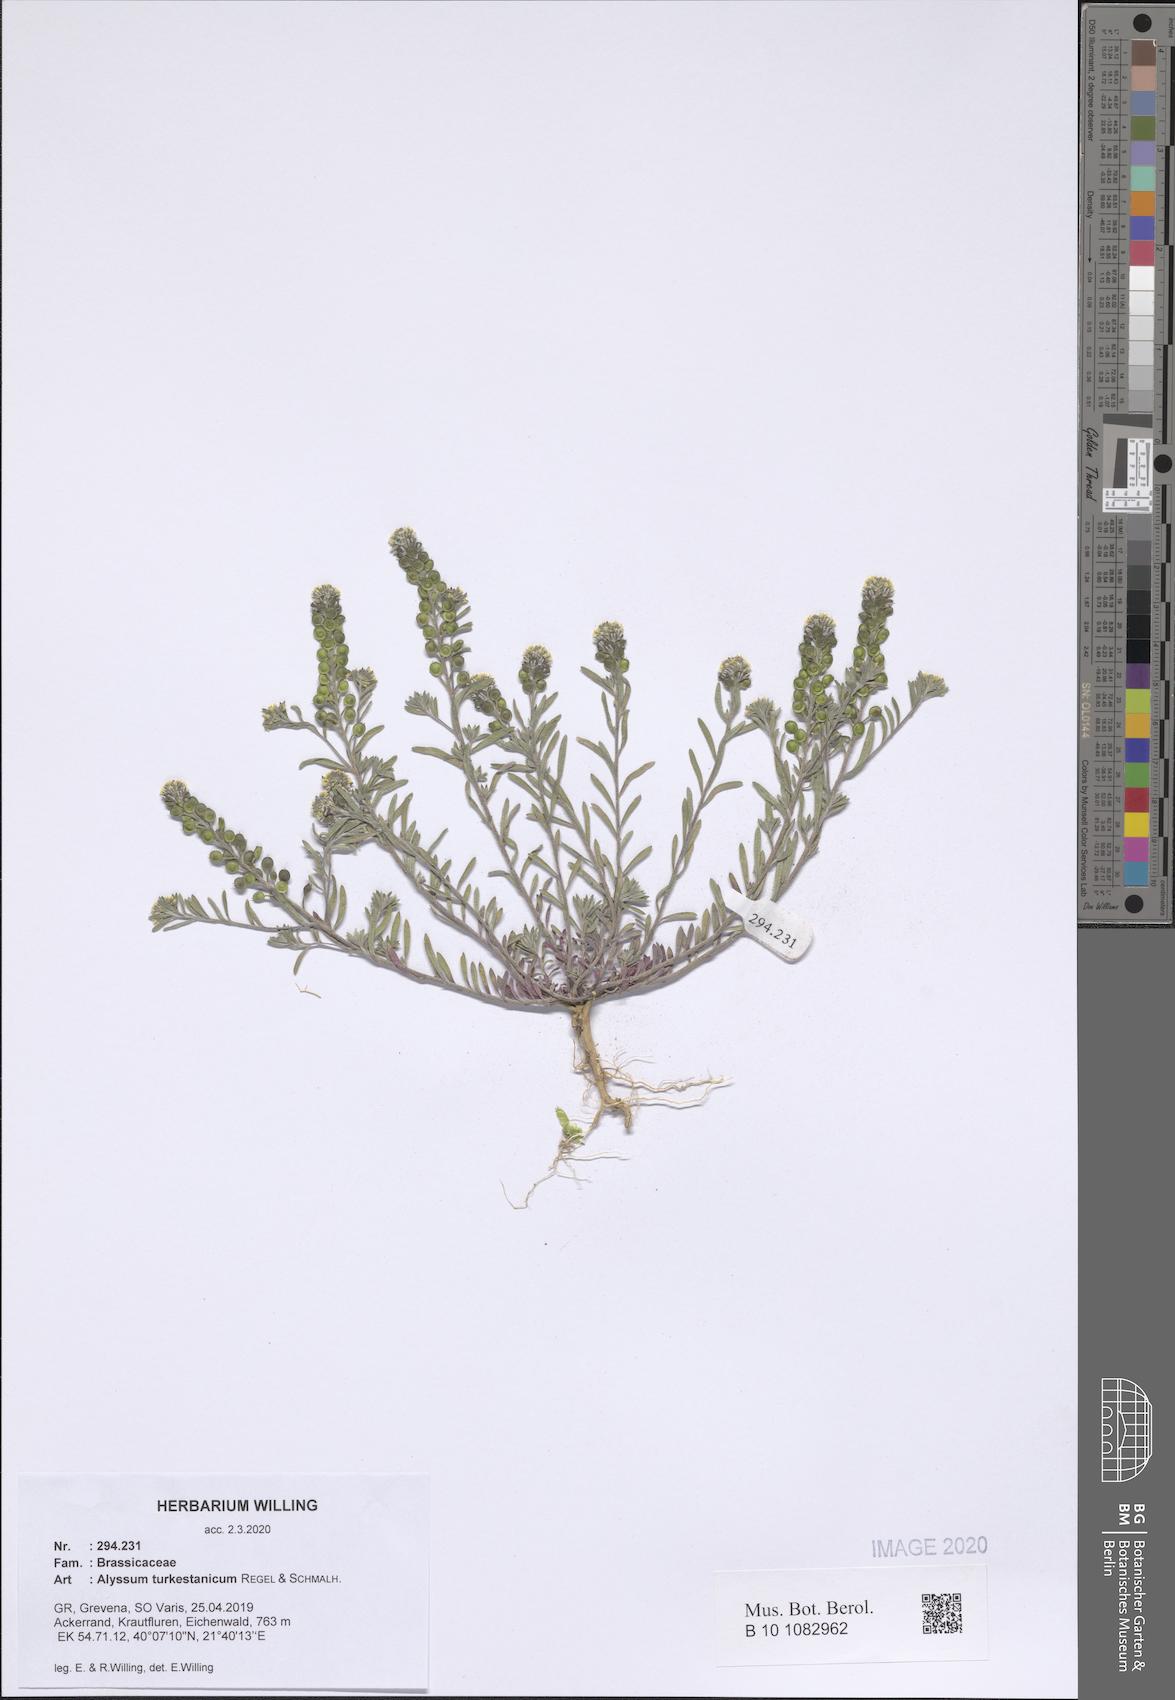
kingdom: Plantae
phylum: Tracheophyta
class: Magnoliopsida
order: Brassicales
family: Brassicaceae
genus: Alyssum
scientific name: Alyssum turkestanicum
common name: Desert alyssum
